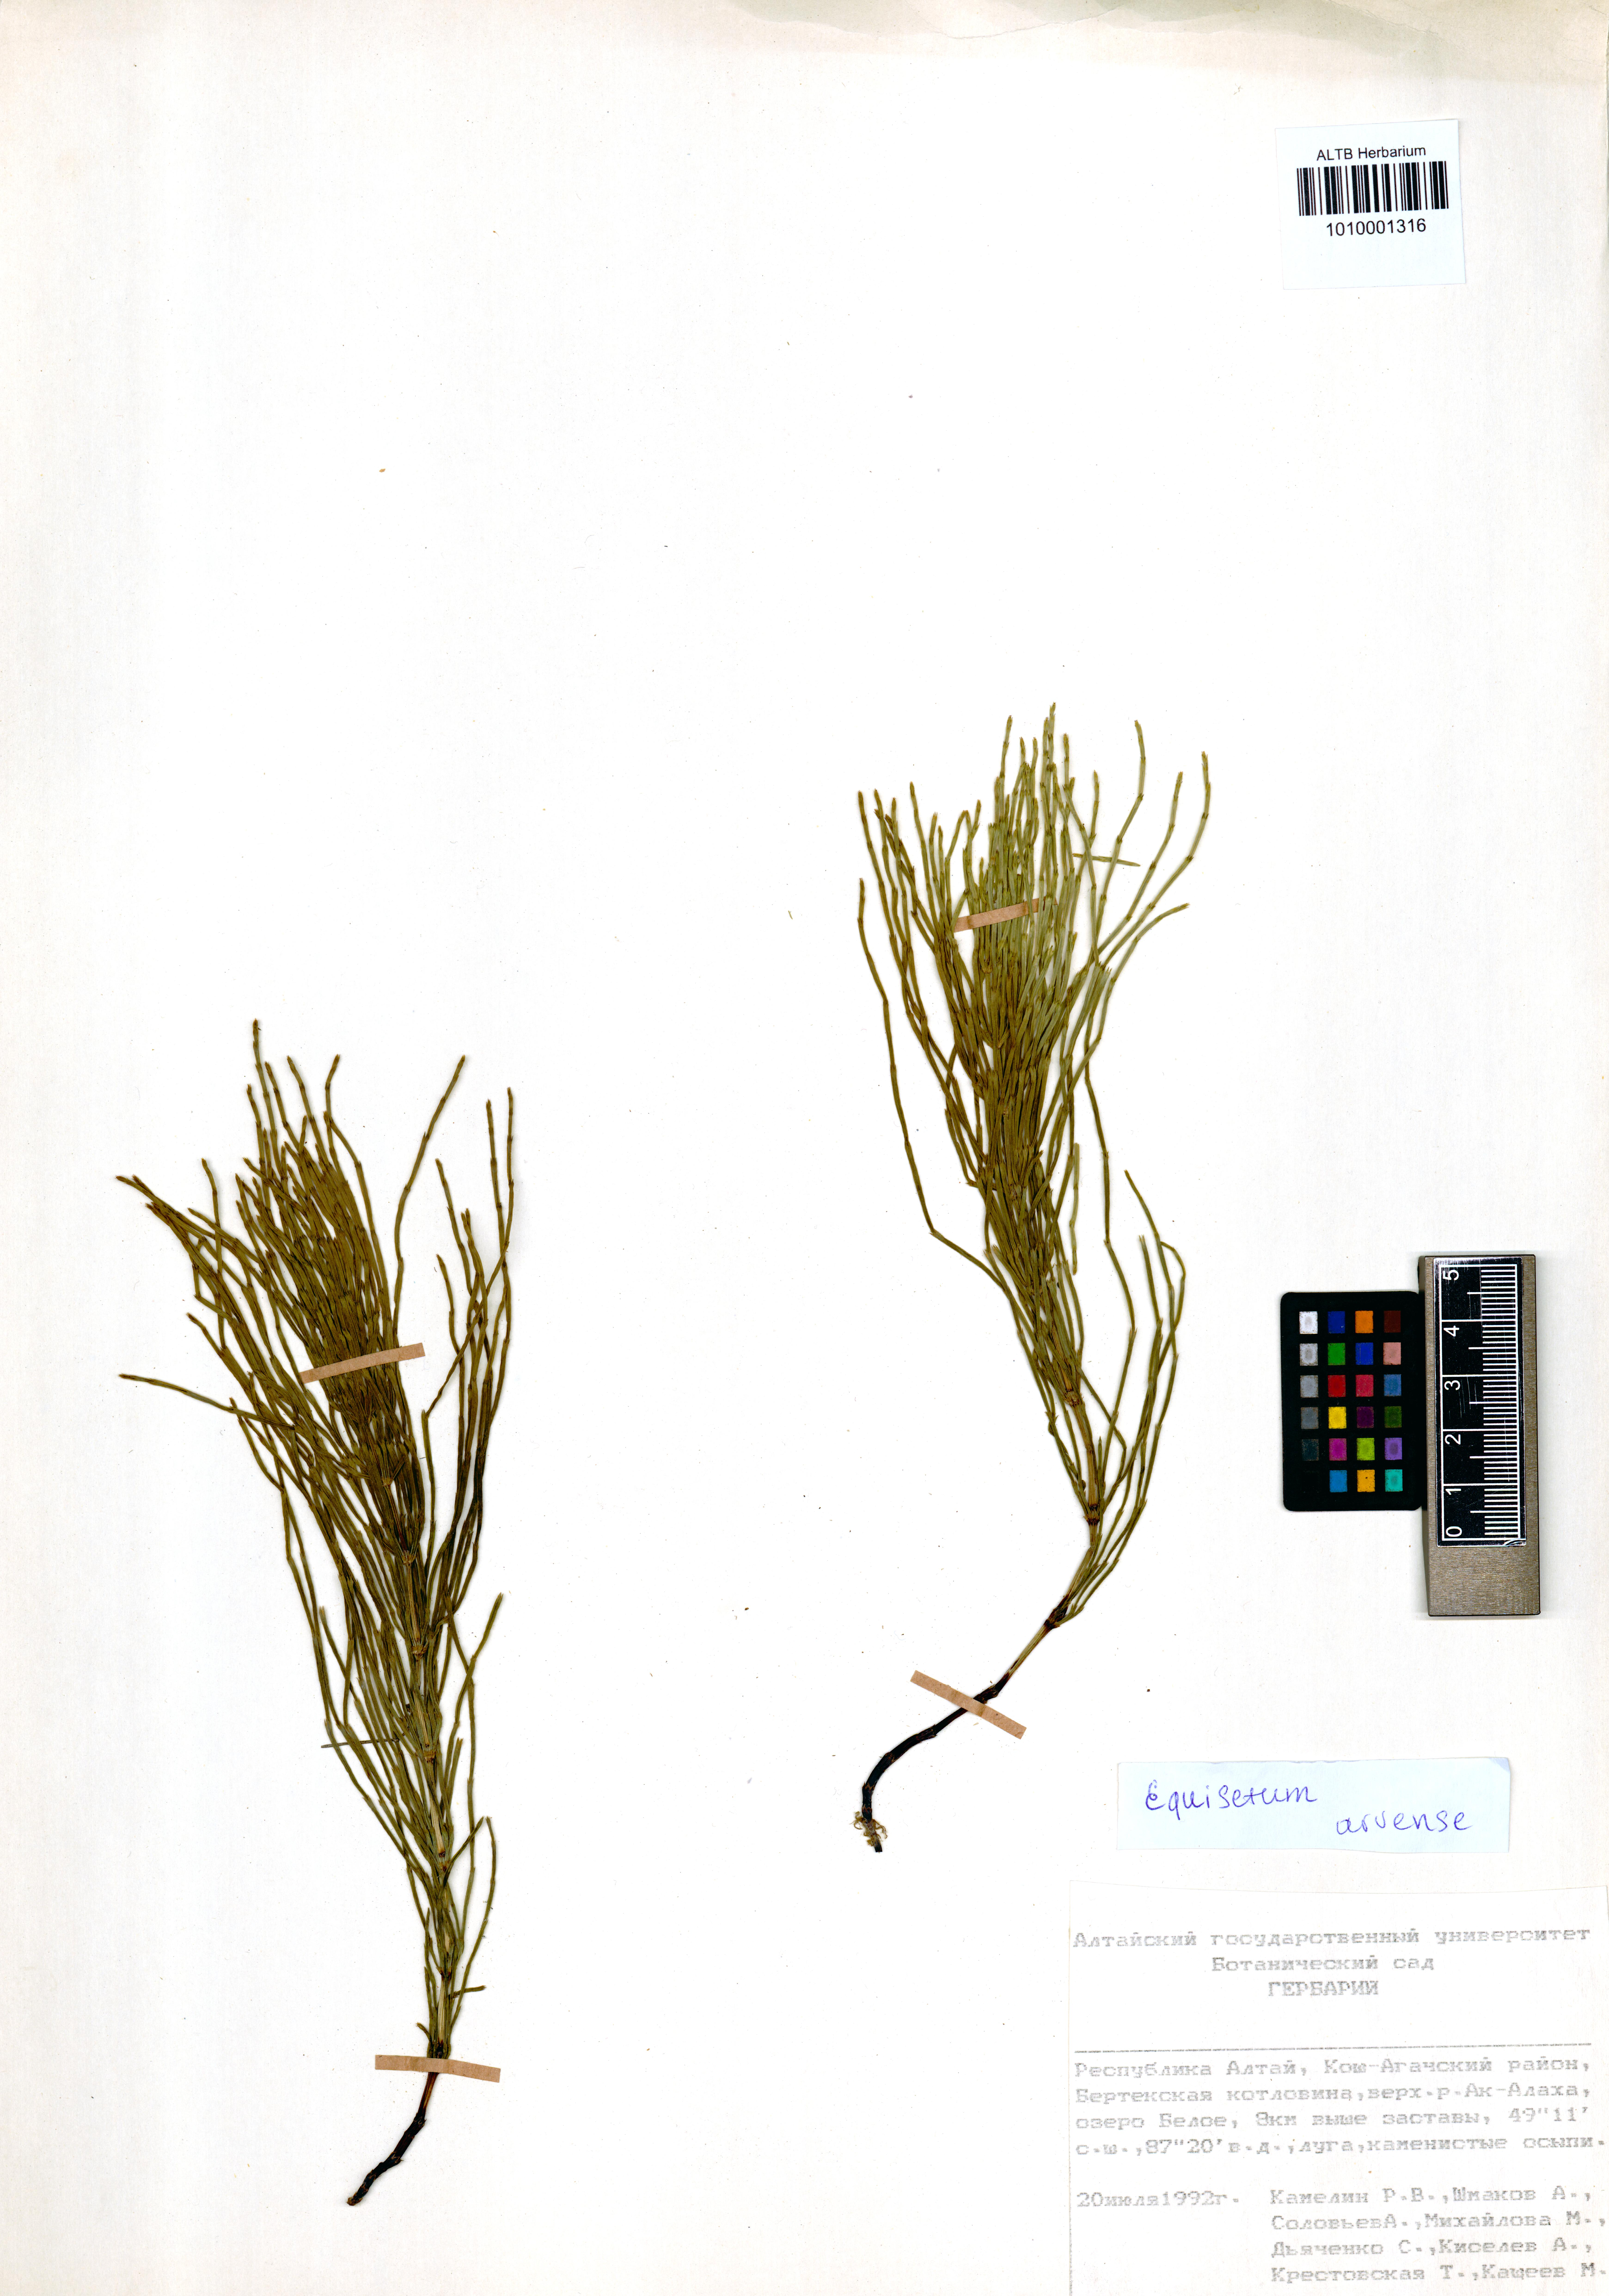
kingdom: Plantae
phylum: Tracheophyta
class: Polypodiopsida
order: Equisetales
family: Equisetaceae
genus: Equisetum
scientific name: Equisetum arvense
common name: Field horsetail
